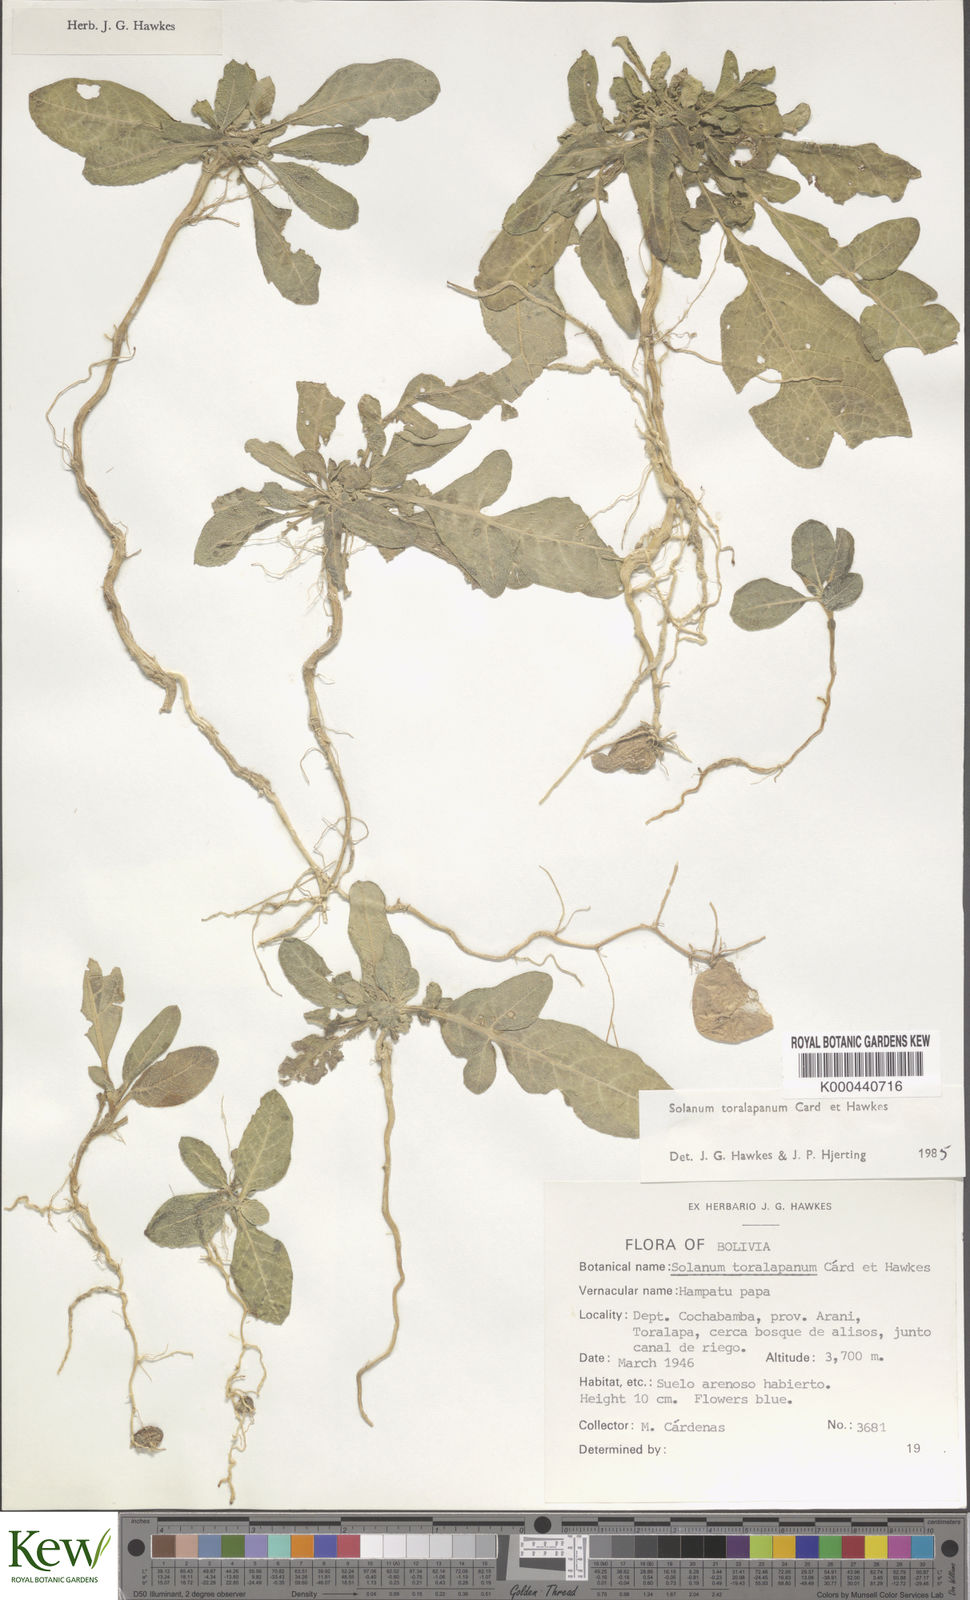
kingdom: Plantae
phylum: Tracheophyta
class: Magnoliopsida
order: Solanales
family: Solanaceae
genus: Solanum
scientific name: Solanum boliviense
